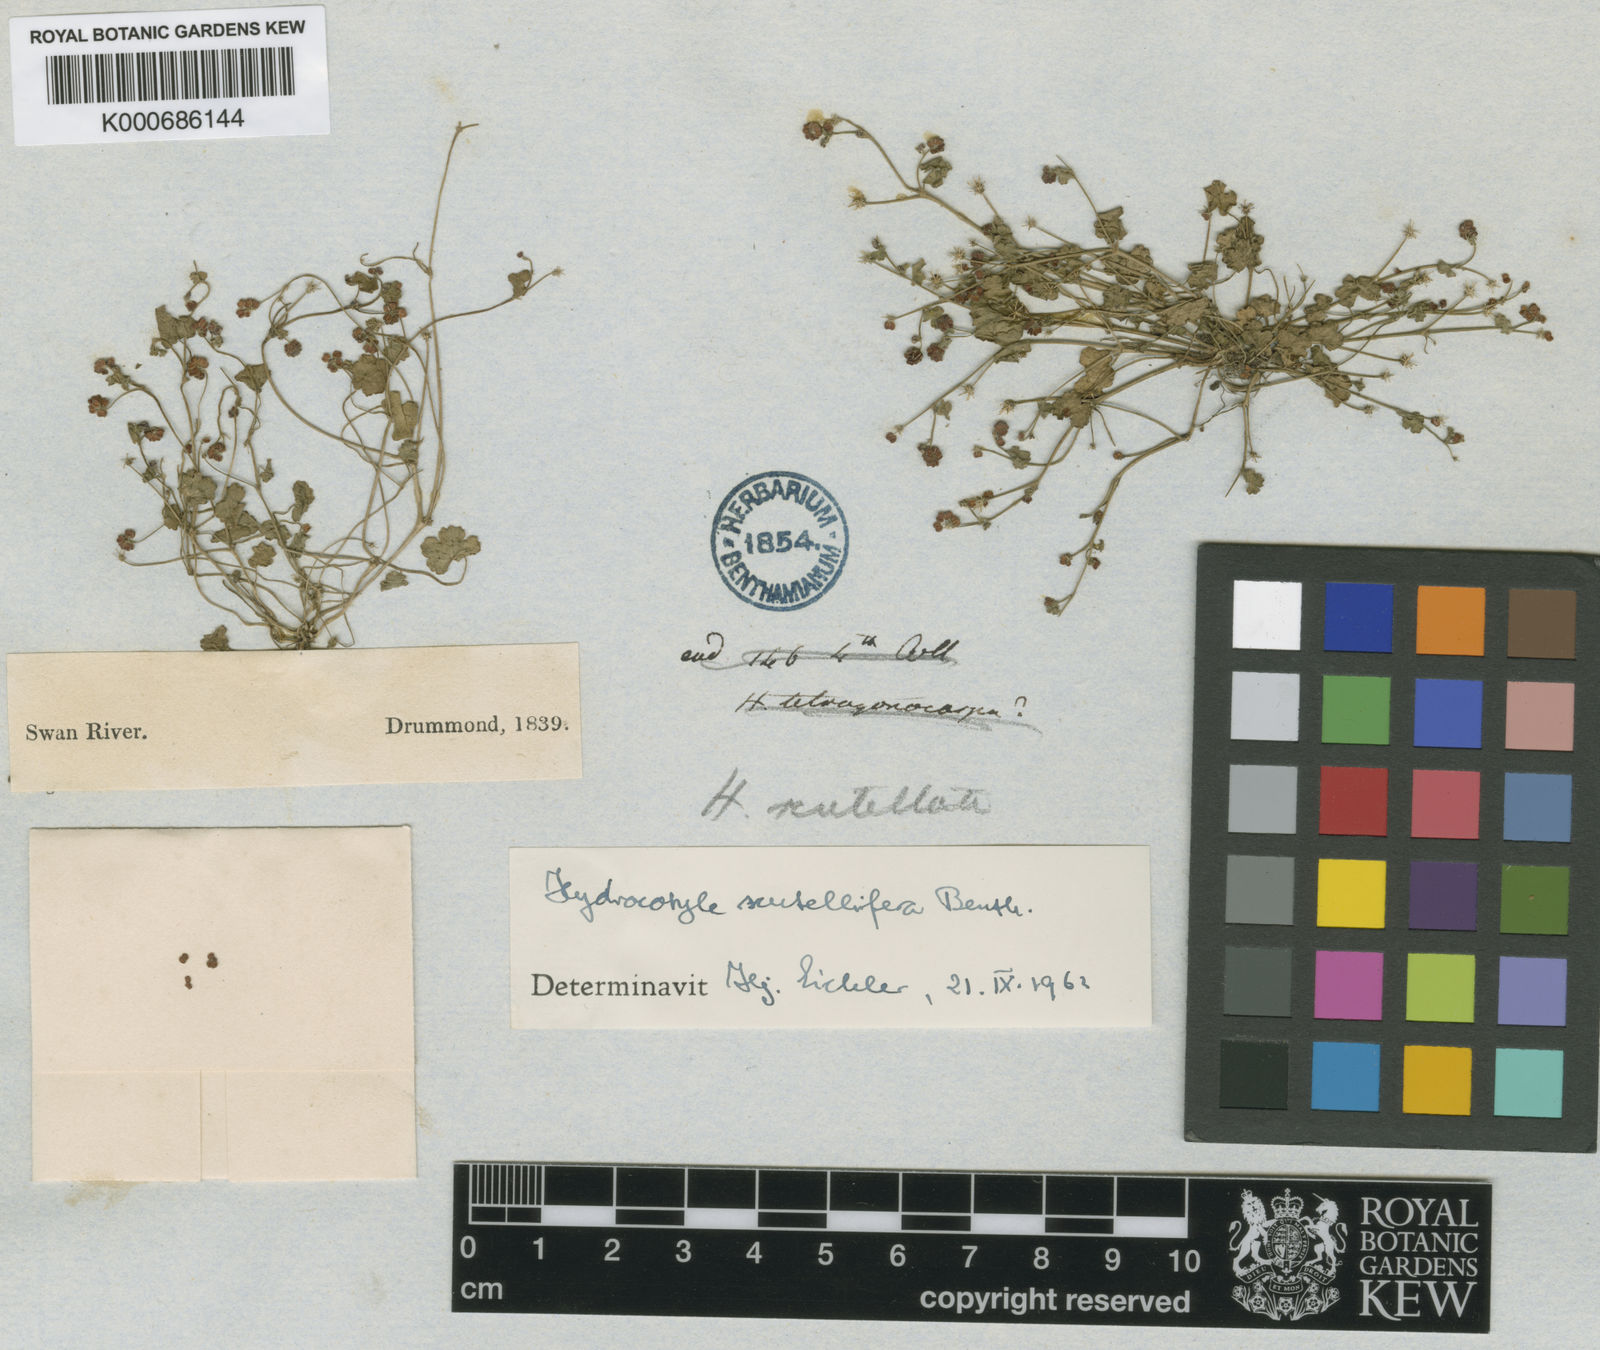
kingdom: Plantae
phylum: Tracheophyta
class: Magnoliopsida
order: Apiales
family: Araliaceae
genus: Hydrocotyle
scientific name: Hydrocotyle scutellifera
